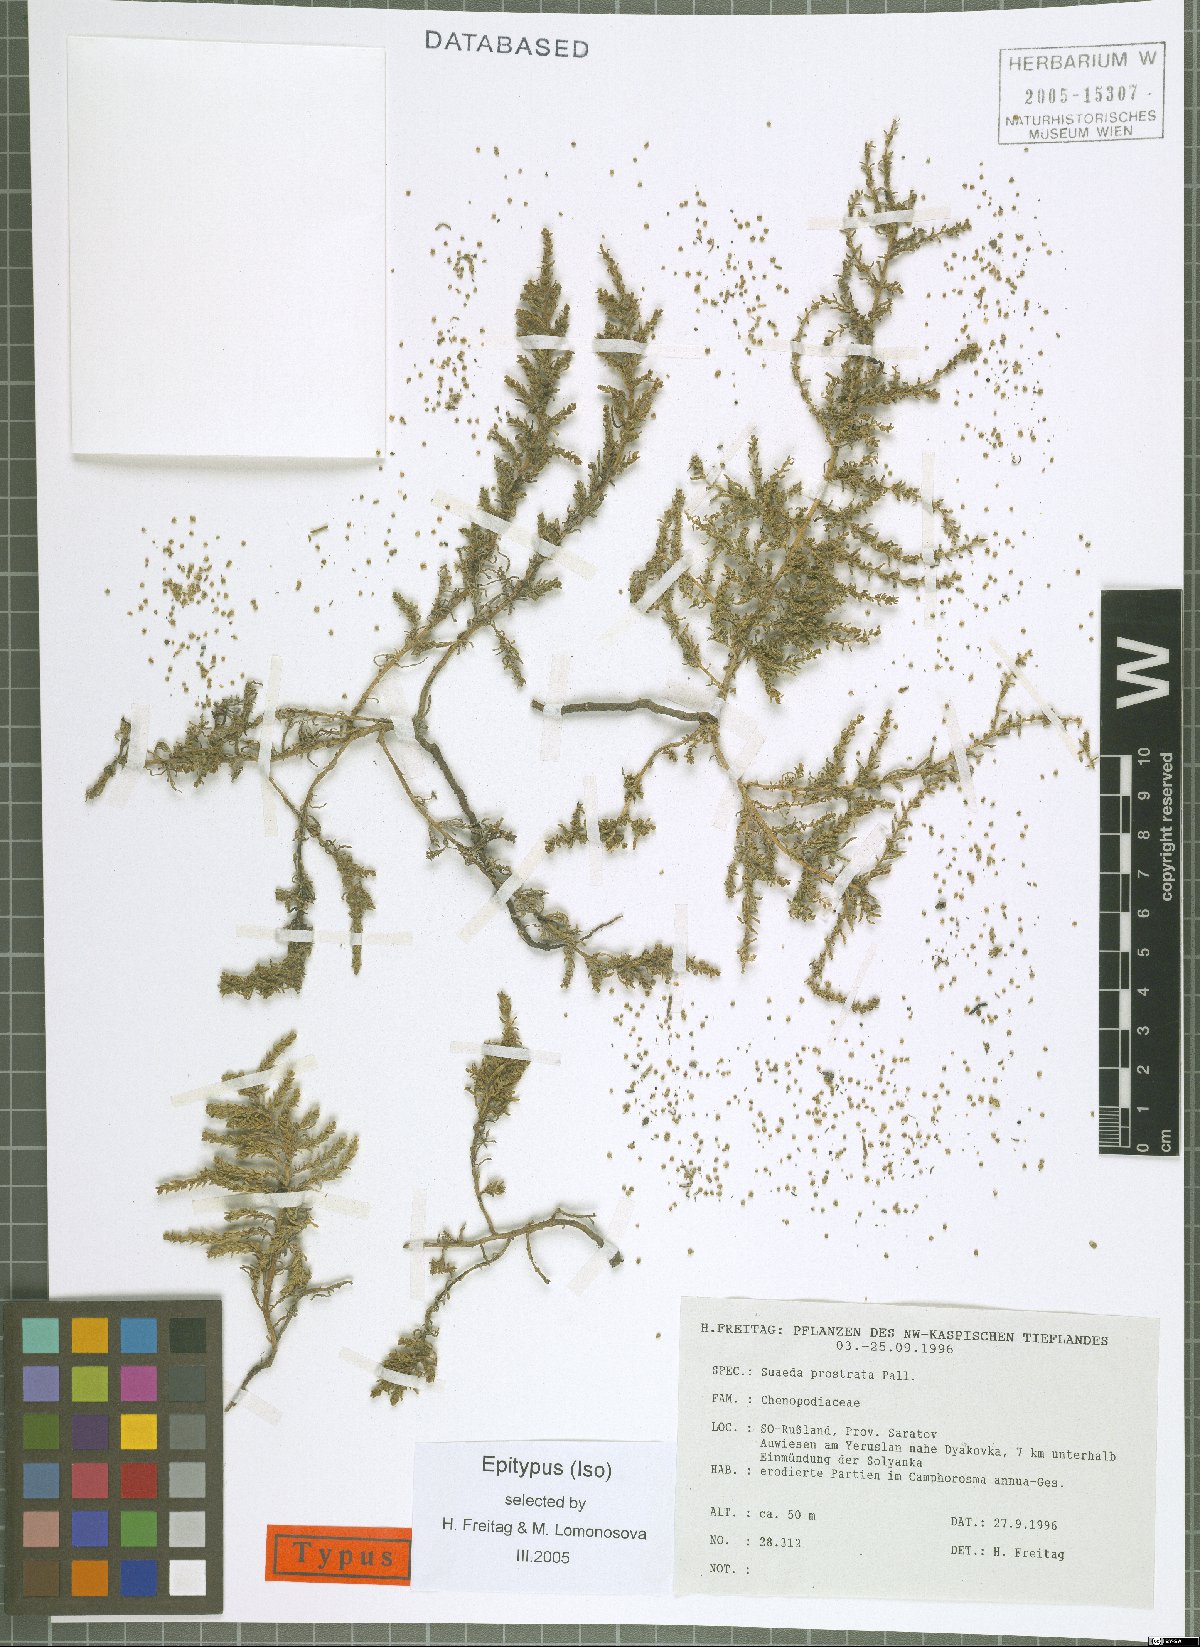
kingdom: Plantae
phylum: Tracheophyta
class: Magnoliopsida
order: Caryophyllales
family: Amaranthaceae
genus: Suaeda
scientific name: Suaeda prostrata
